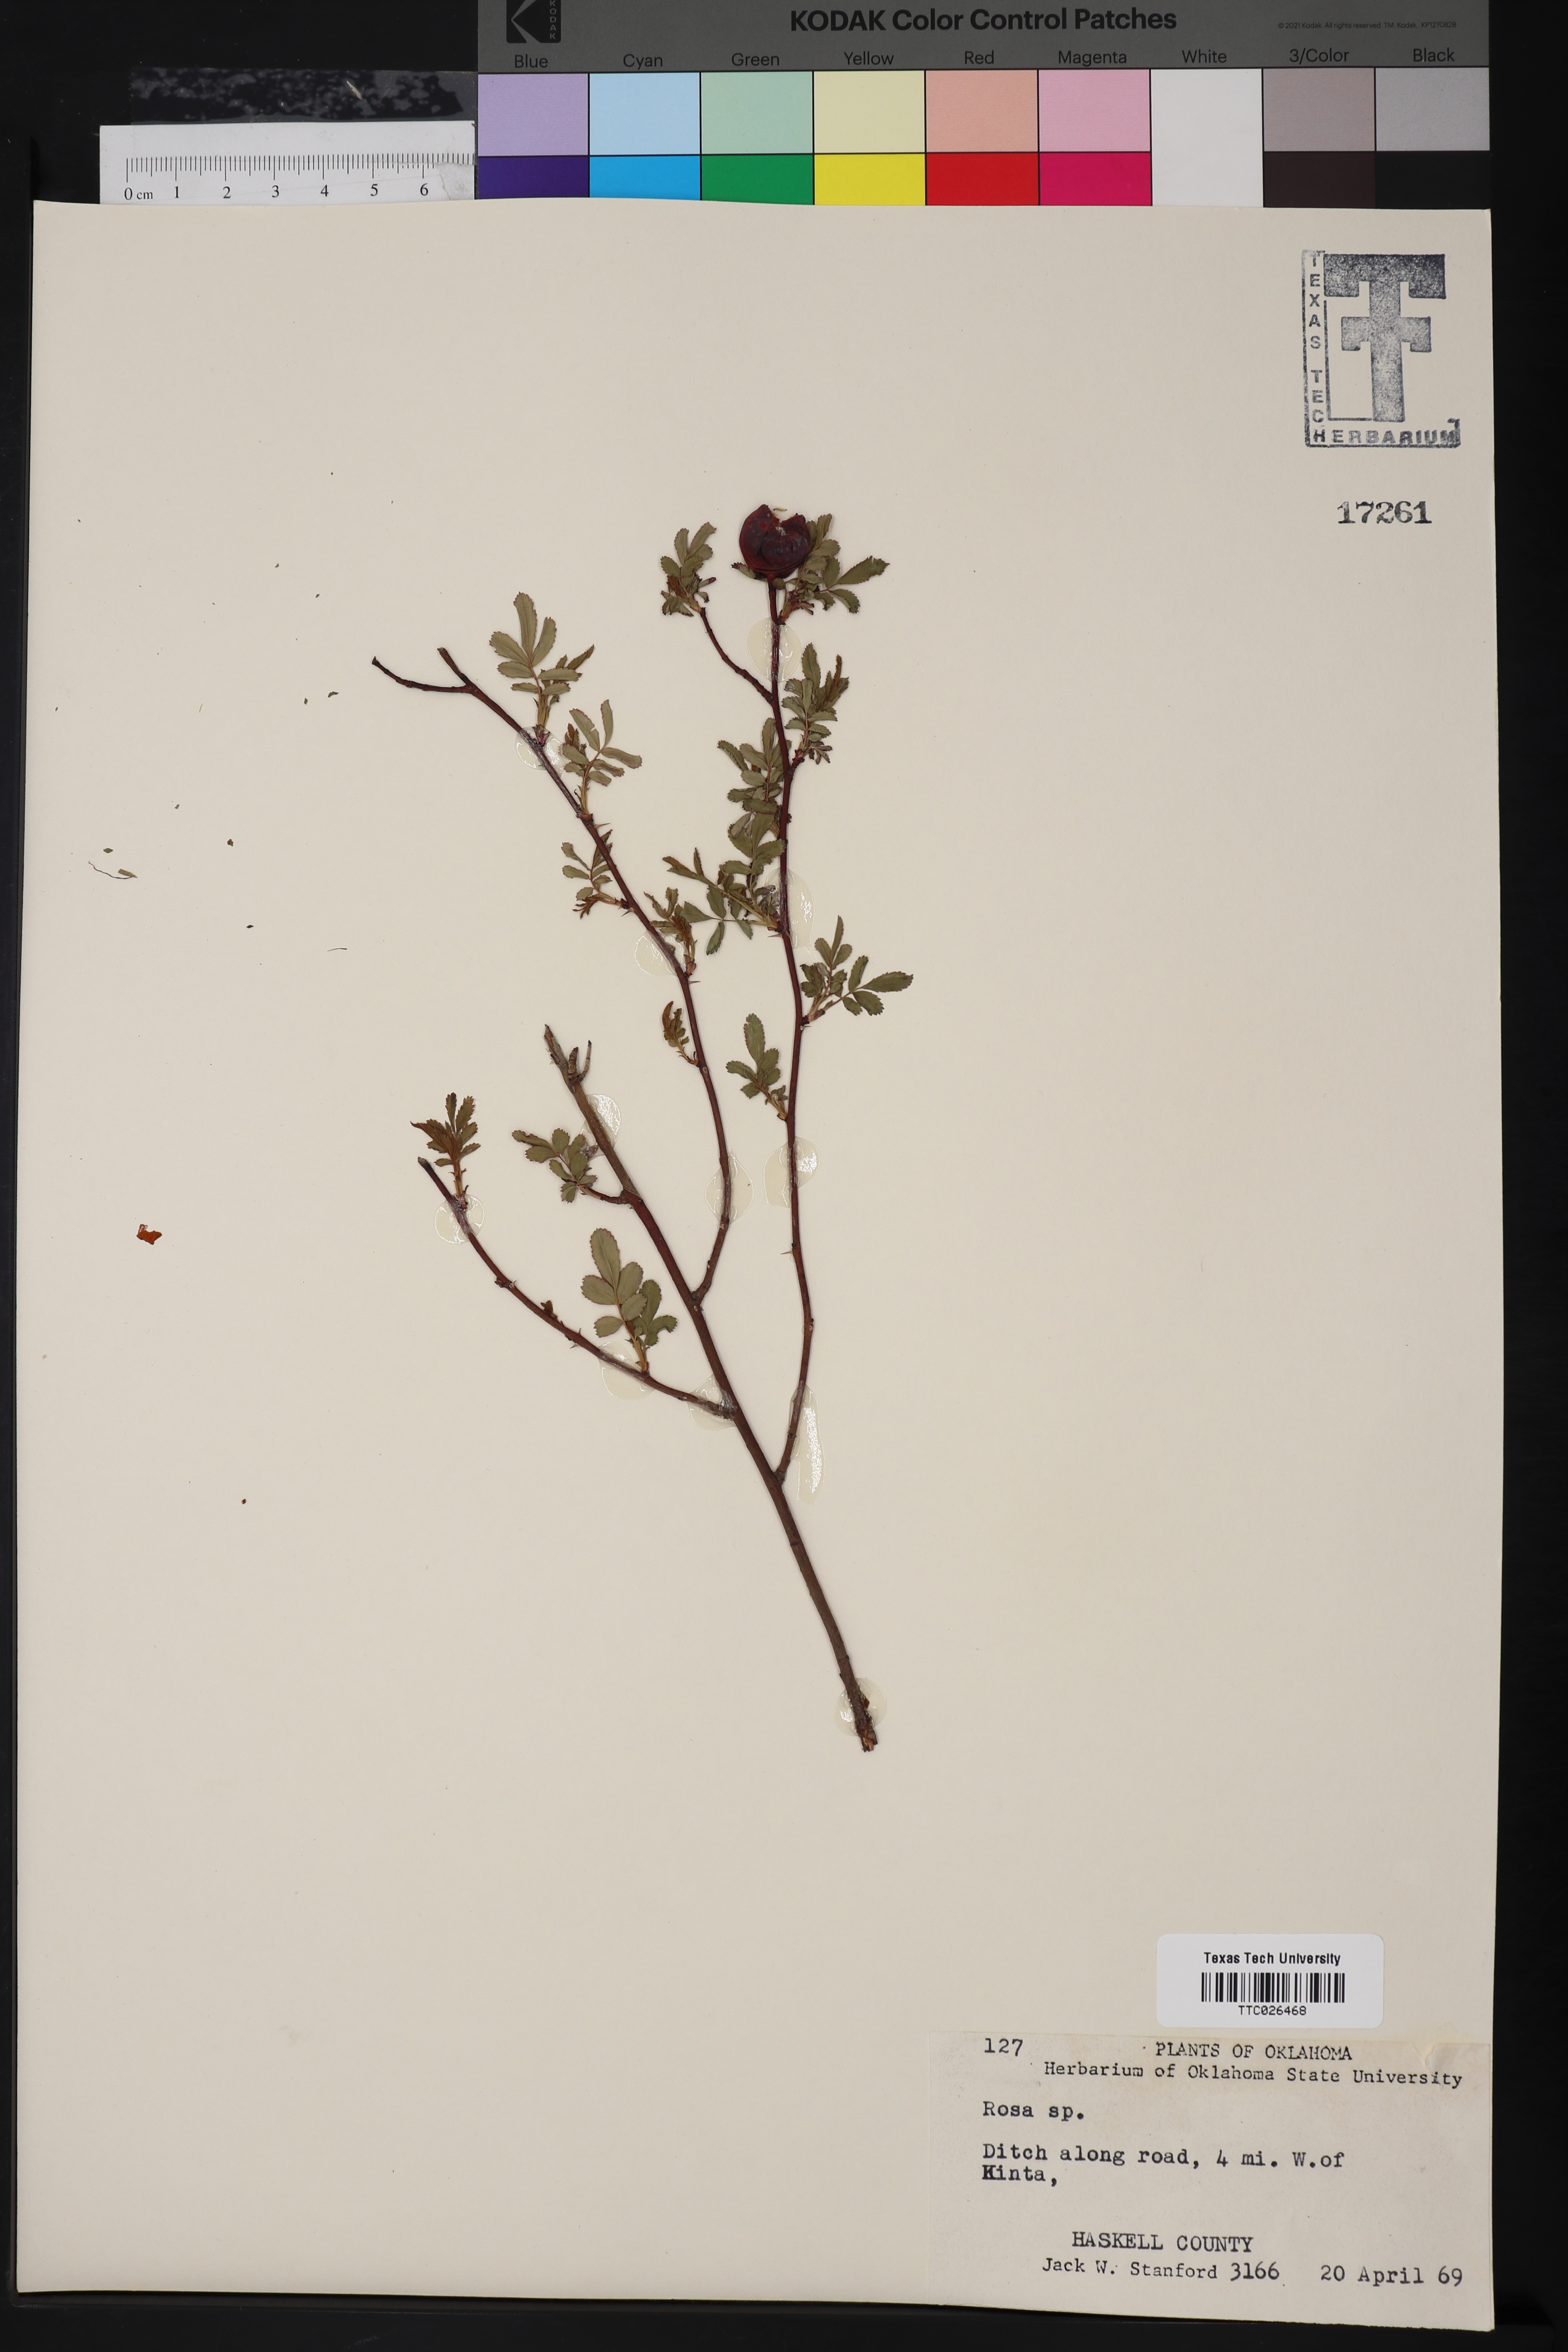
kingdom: Plantae
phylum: Tracheophyta
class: Magnoliopsida
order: Rosales
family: Rosaceae
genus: Rosa
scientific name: Rosa
